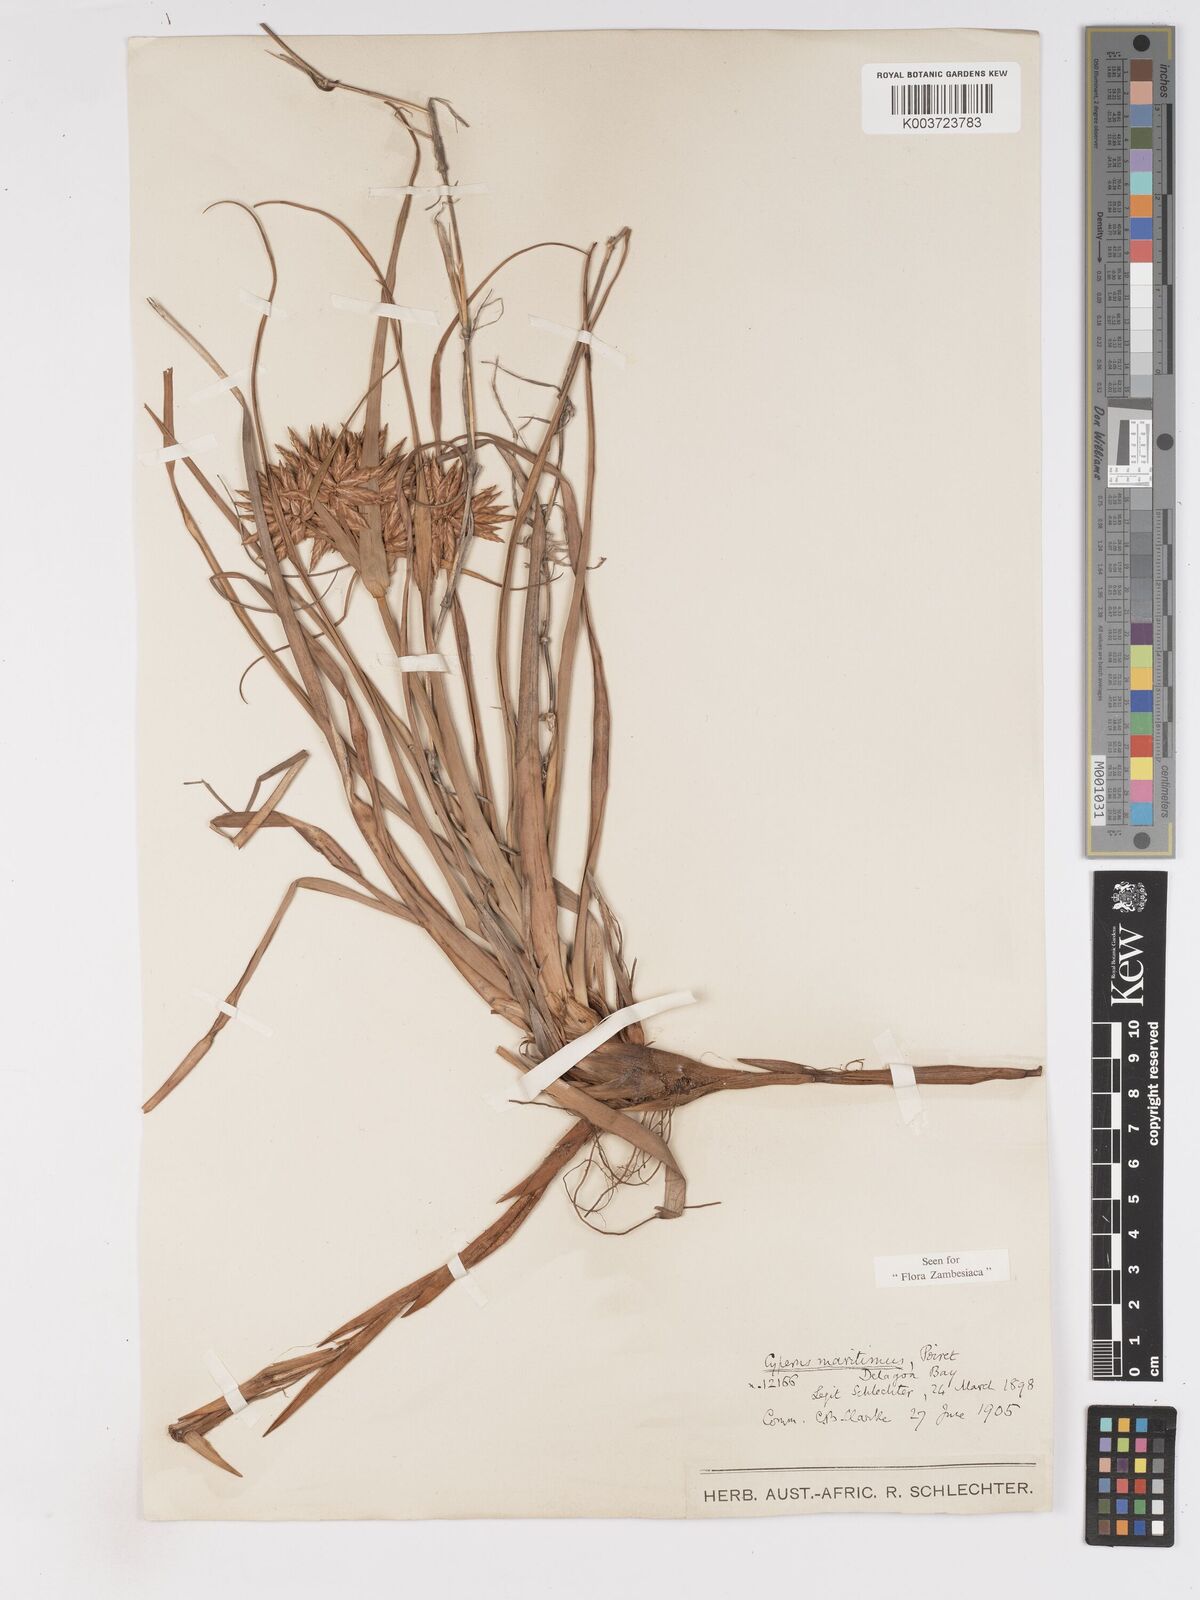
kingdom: Plantae
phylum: Tracheophyta
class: Liliopsida
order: Poales
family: Cyperaceae
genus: Cyperus
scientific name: Cyperus crassipes
